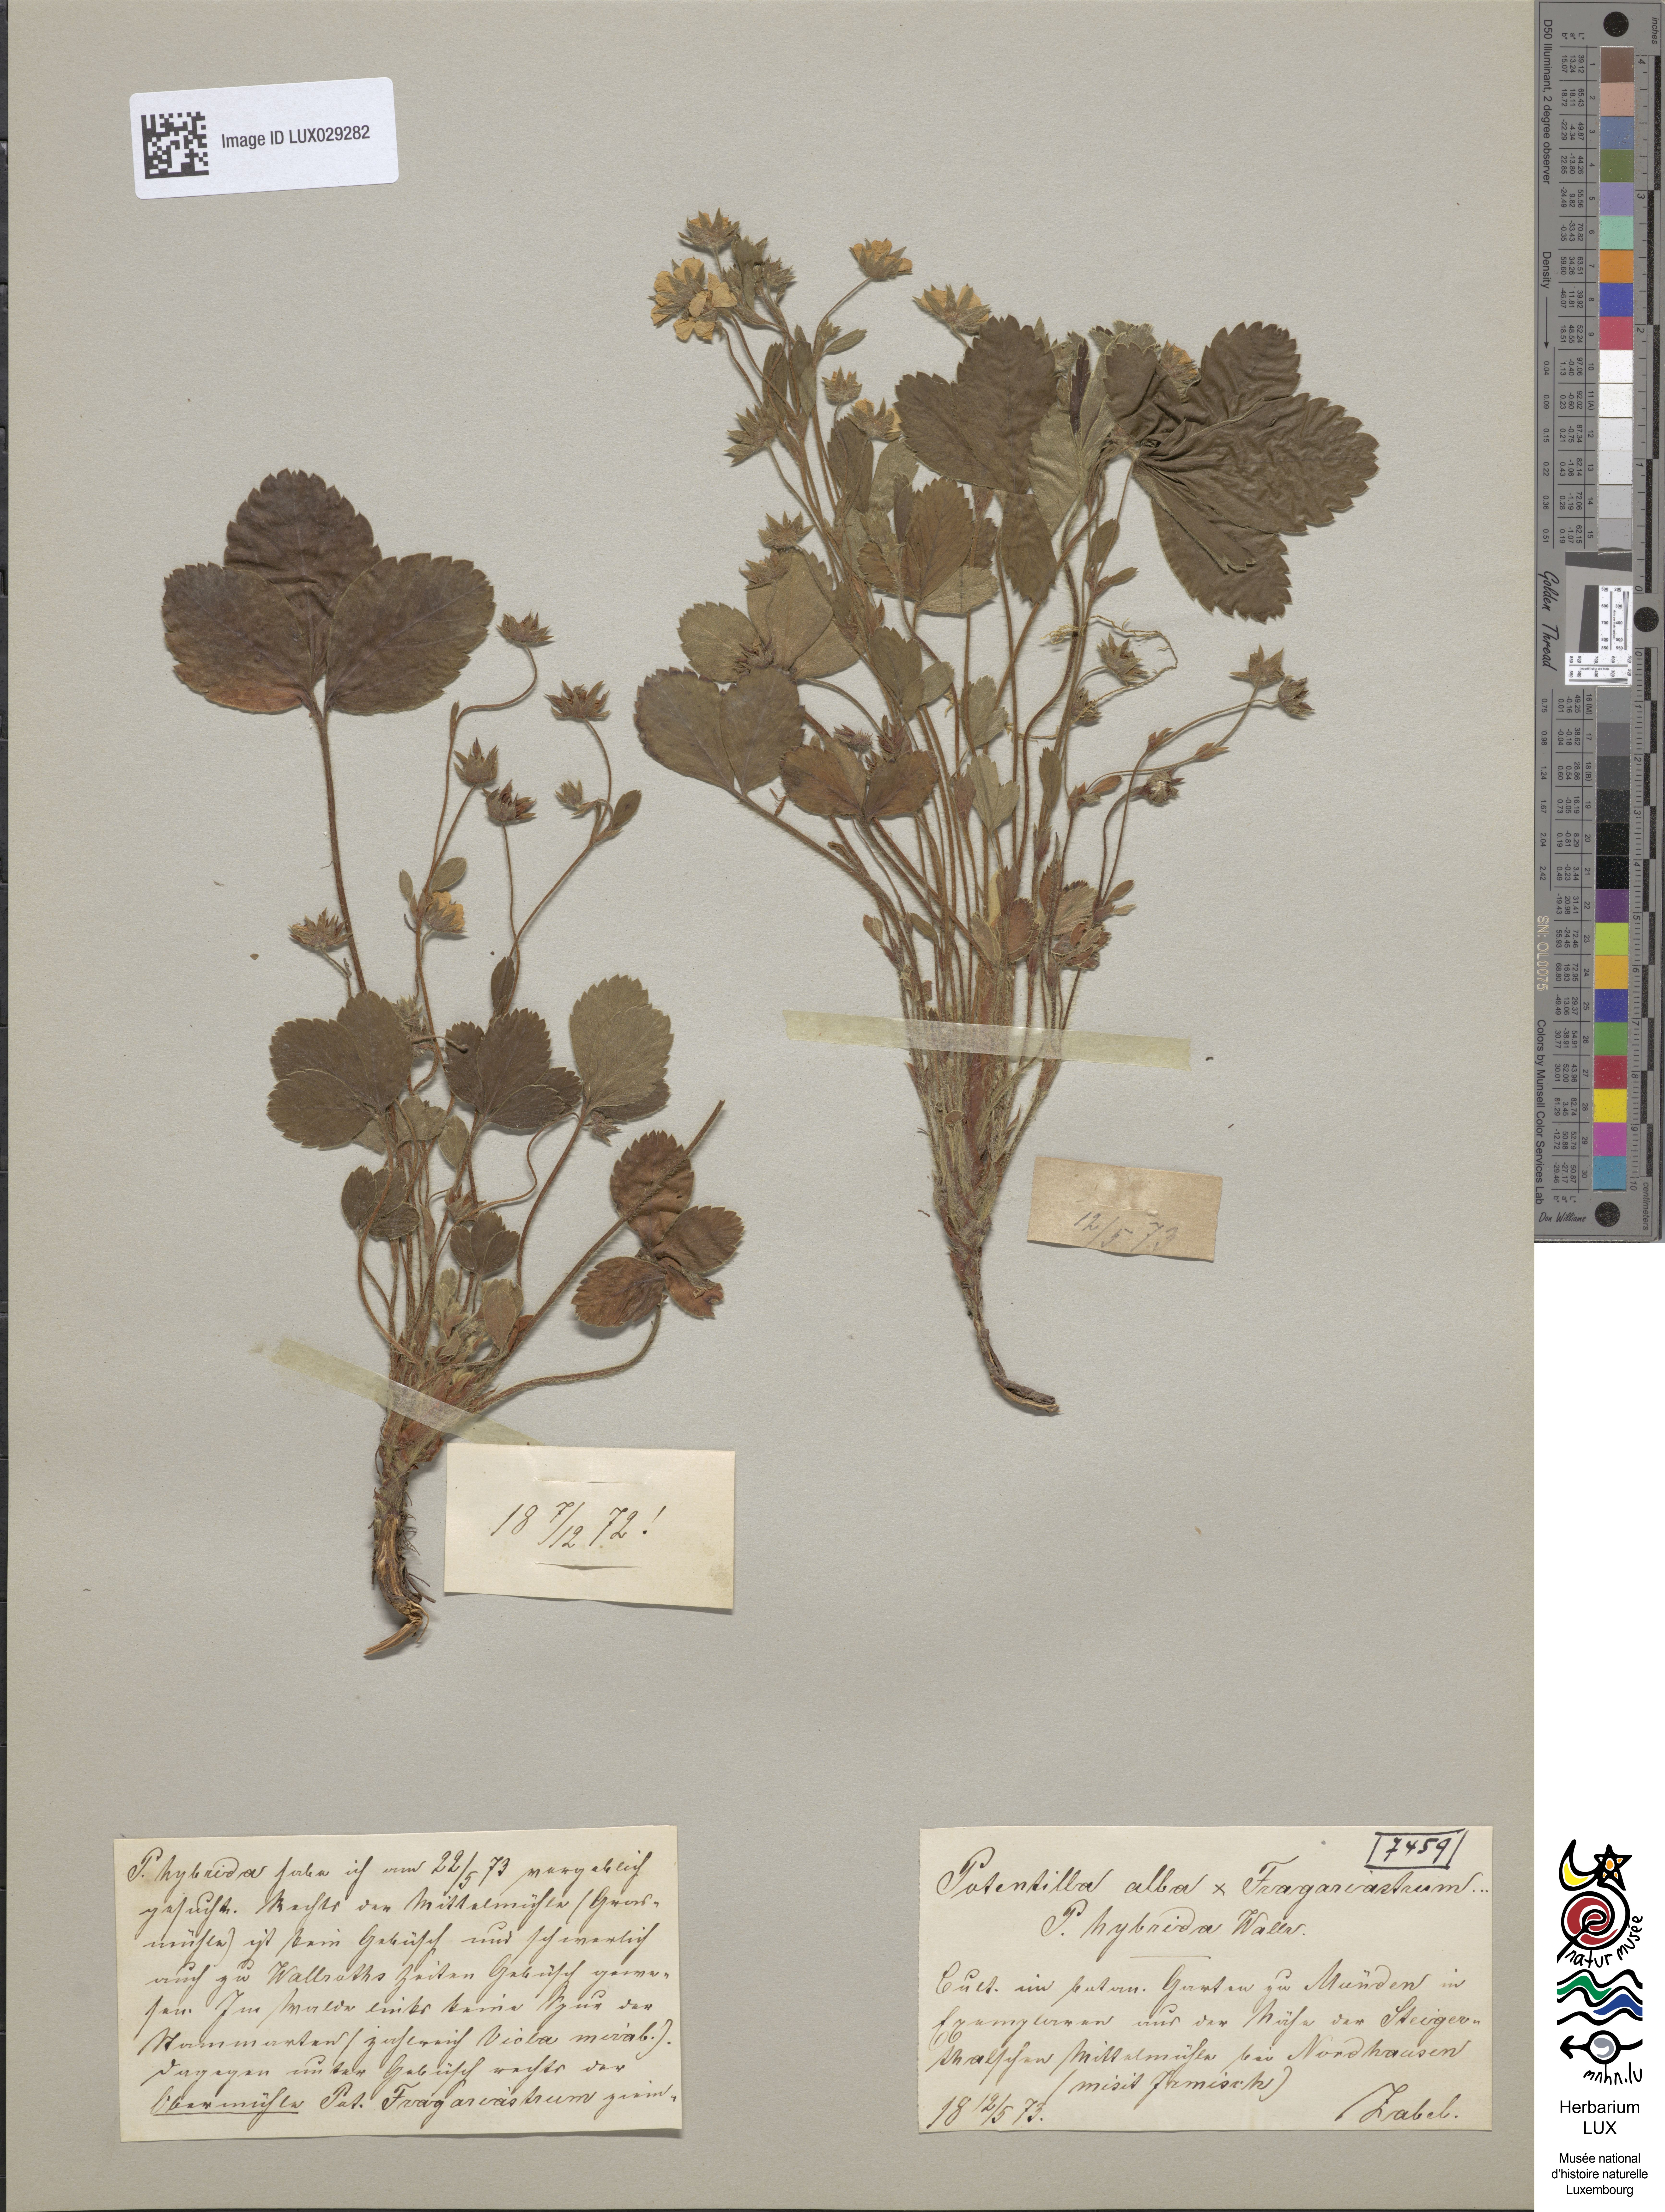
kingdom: Plantae
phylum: Tracheophyta
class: Magnoliopsida
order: Rosales
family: Rosaceae
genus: Potentilla
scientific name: Potentilla splendens
